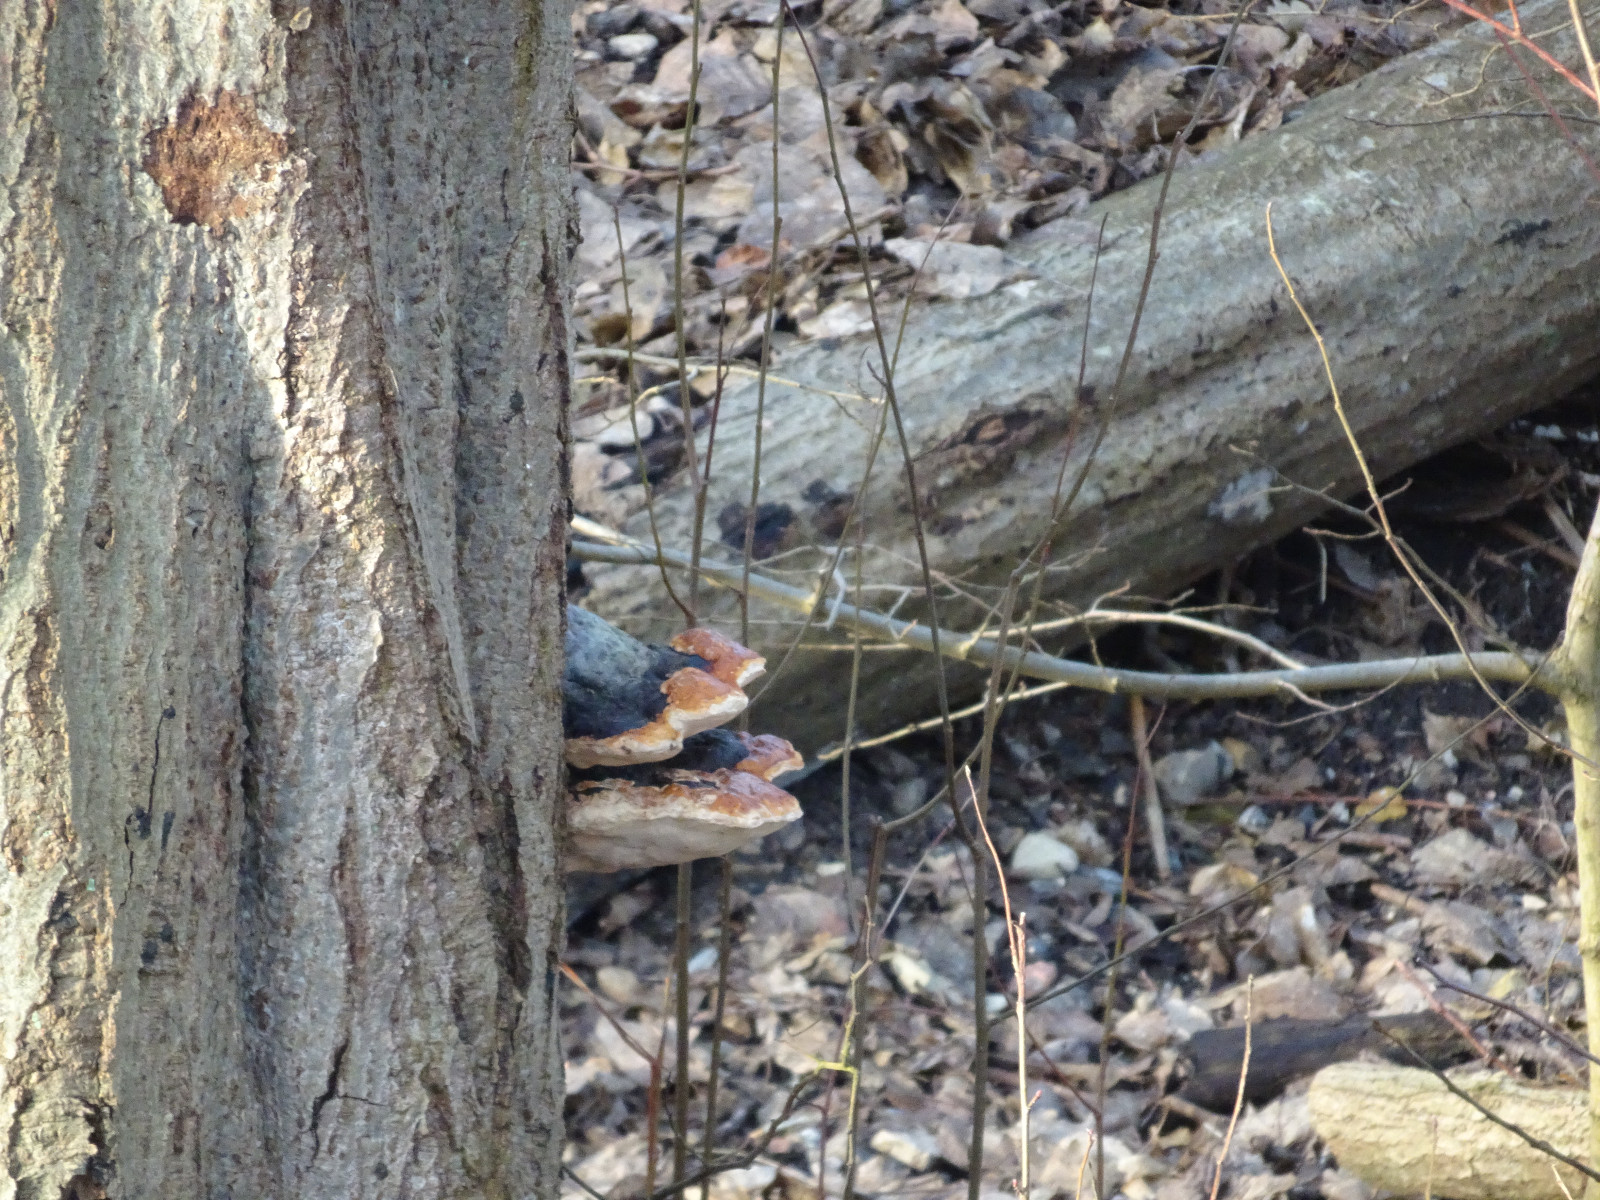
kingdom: Fungi
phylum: Basidiomycota
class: Agaricomycetes
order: Polyporales
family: Fomitopsidaceae
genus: Fomitopsis
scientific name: Fomitopsis pinicola
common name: randbæltet hovporesvamp
